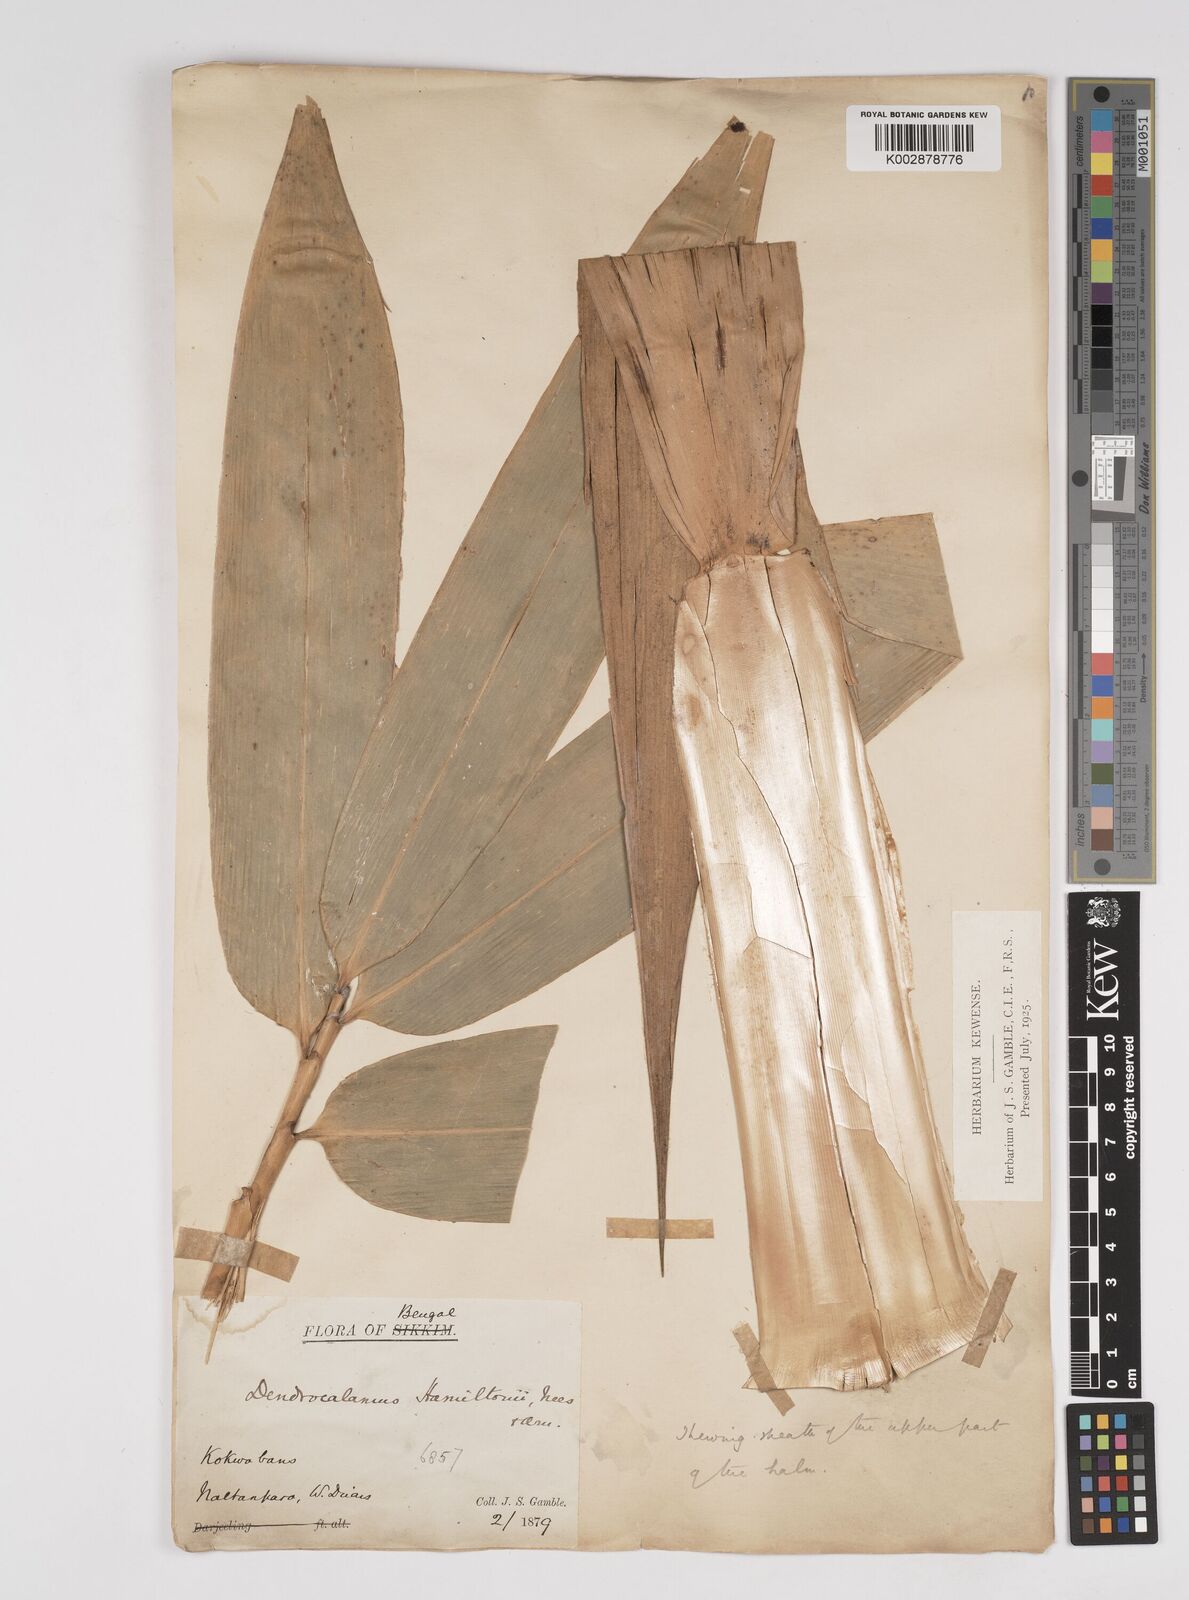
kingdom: Plantae
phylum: Tracheophyta
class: Liliopsida
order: Poales
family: Poaceae
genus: Dendrocalamus
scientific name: Dendrocalamus hamiltonii
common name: Tama bamboo
